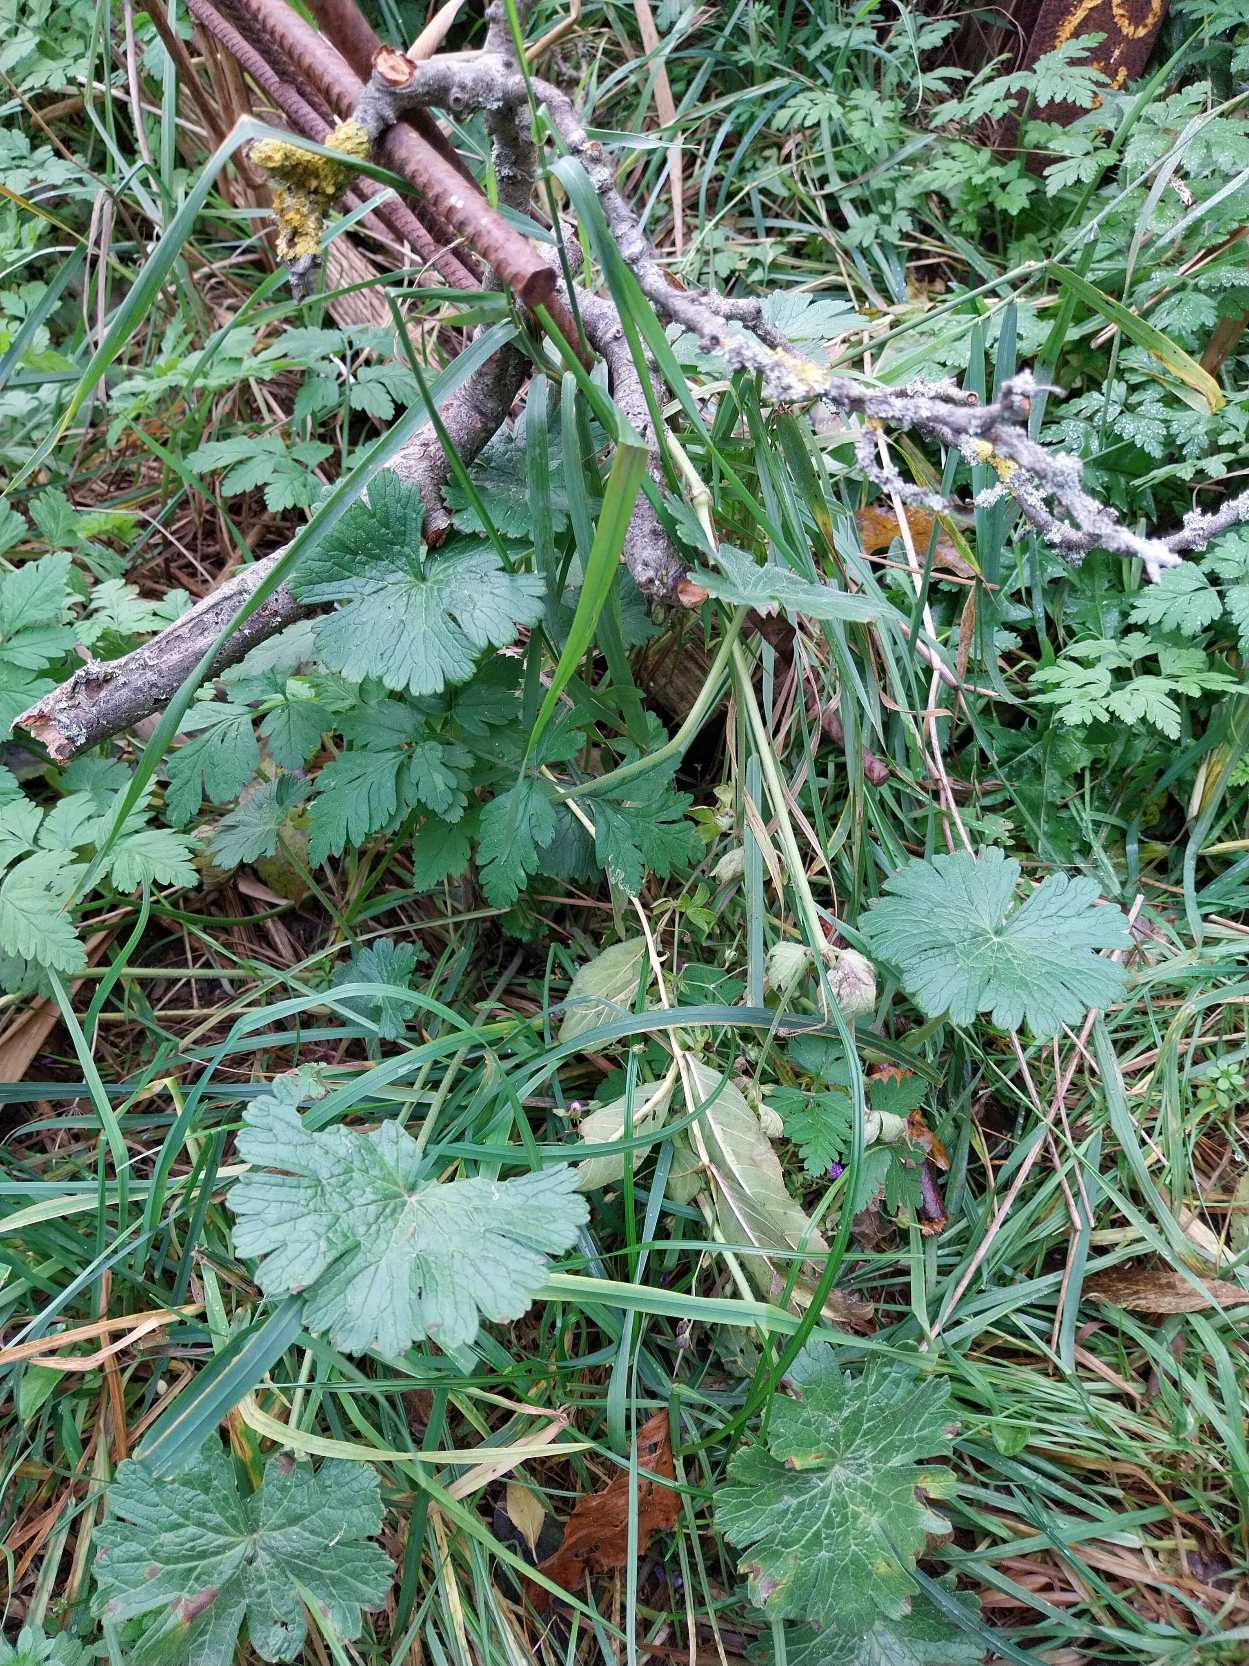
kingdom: Plantae
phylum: Tracheophyta
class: Magnoliopsida
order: Geraniales
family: Geraniaceae
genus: Geranium
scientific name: Geranium pyrenaicum
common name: Pyrenæisk storkenæb
